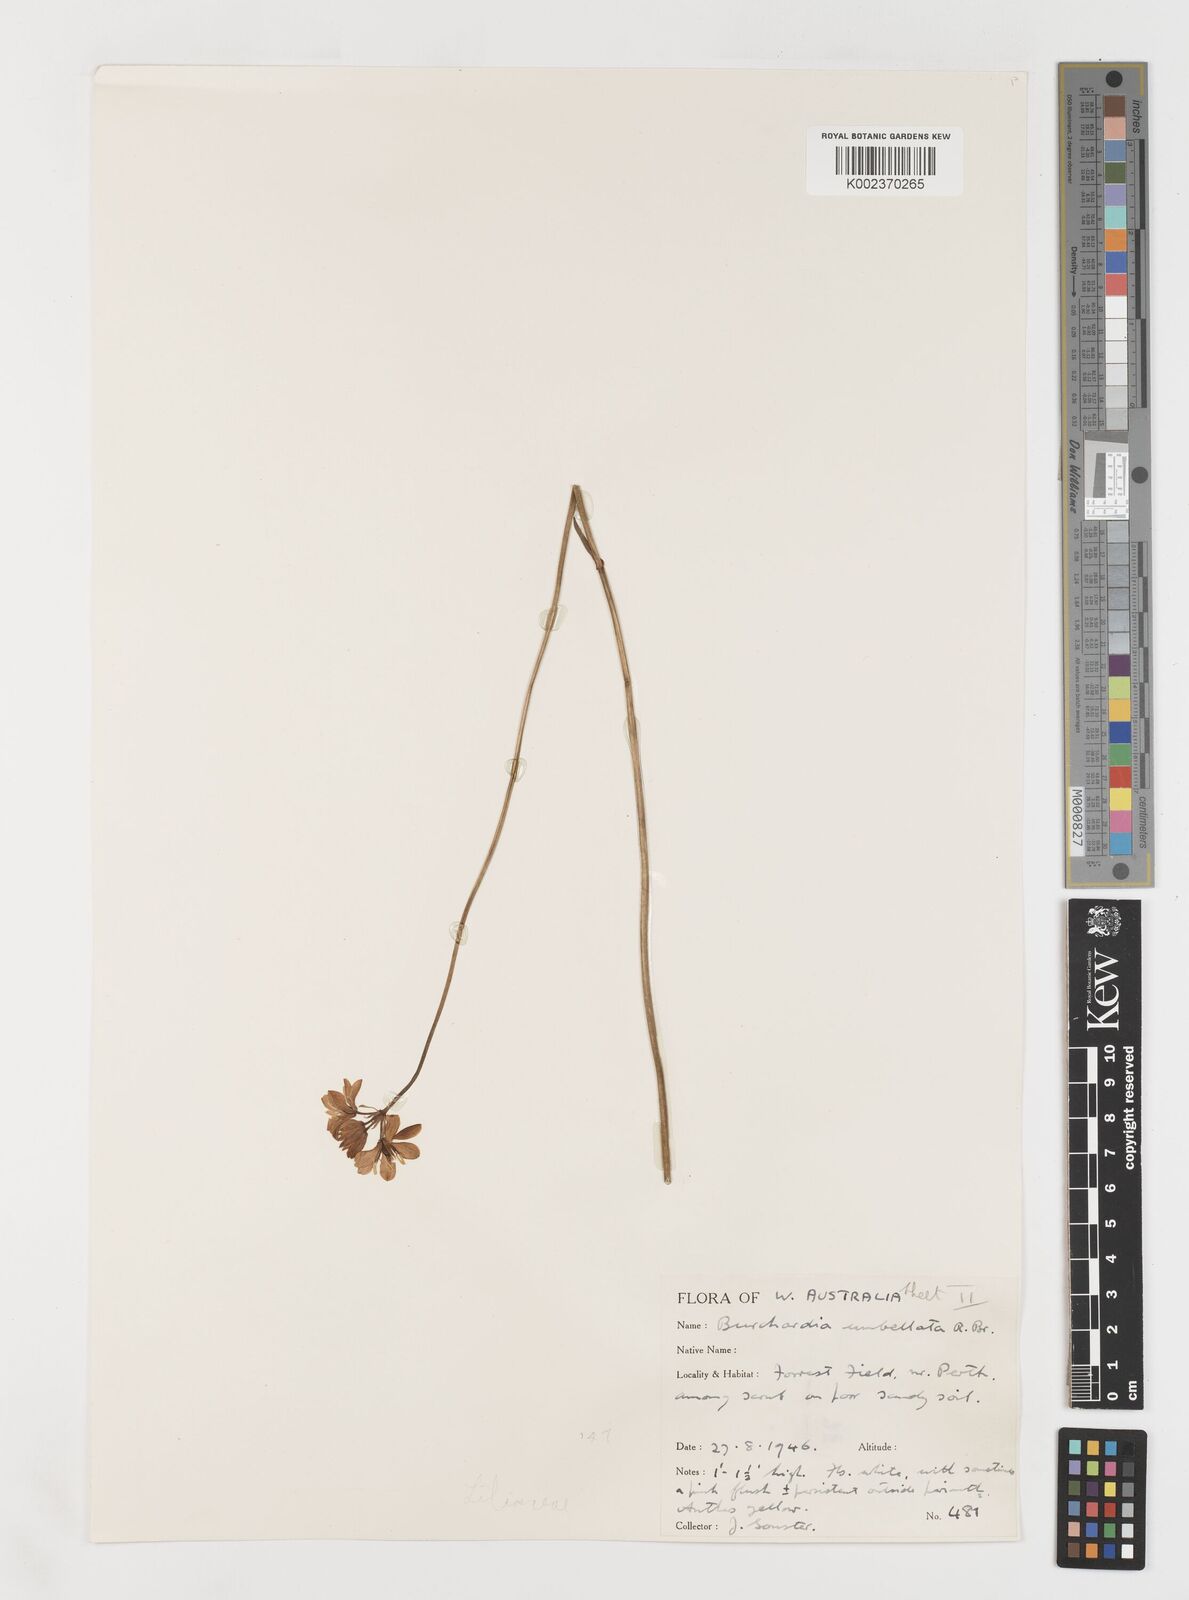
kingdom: Plantae
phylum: Tracheophyta
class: Liliopsida
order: Liliales
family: Colchicaceae
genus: Burchardia
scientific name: Burchardia umbellata
